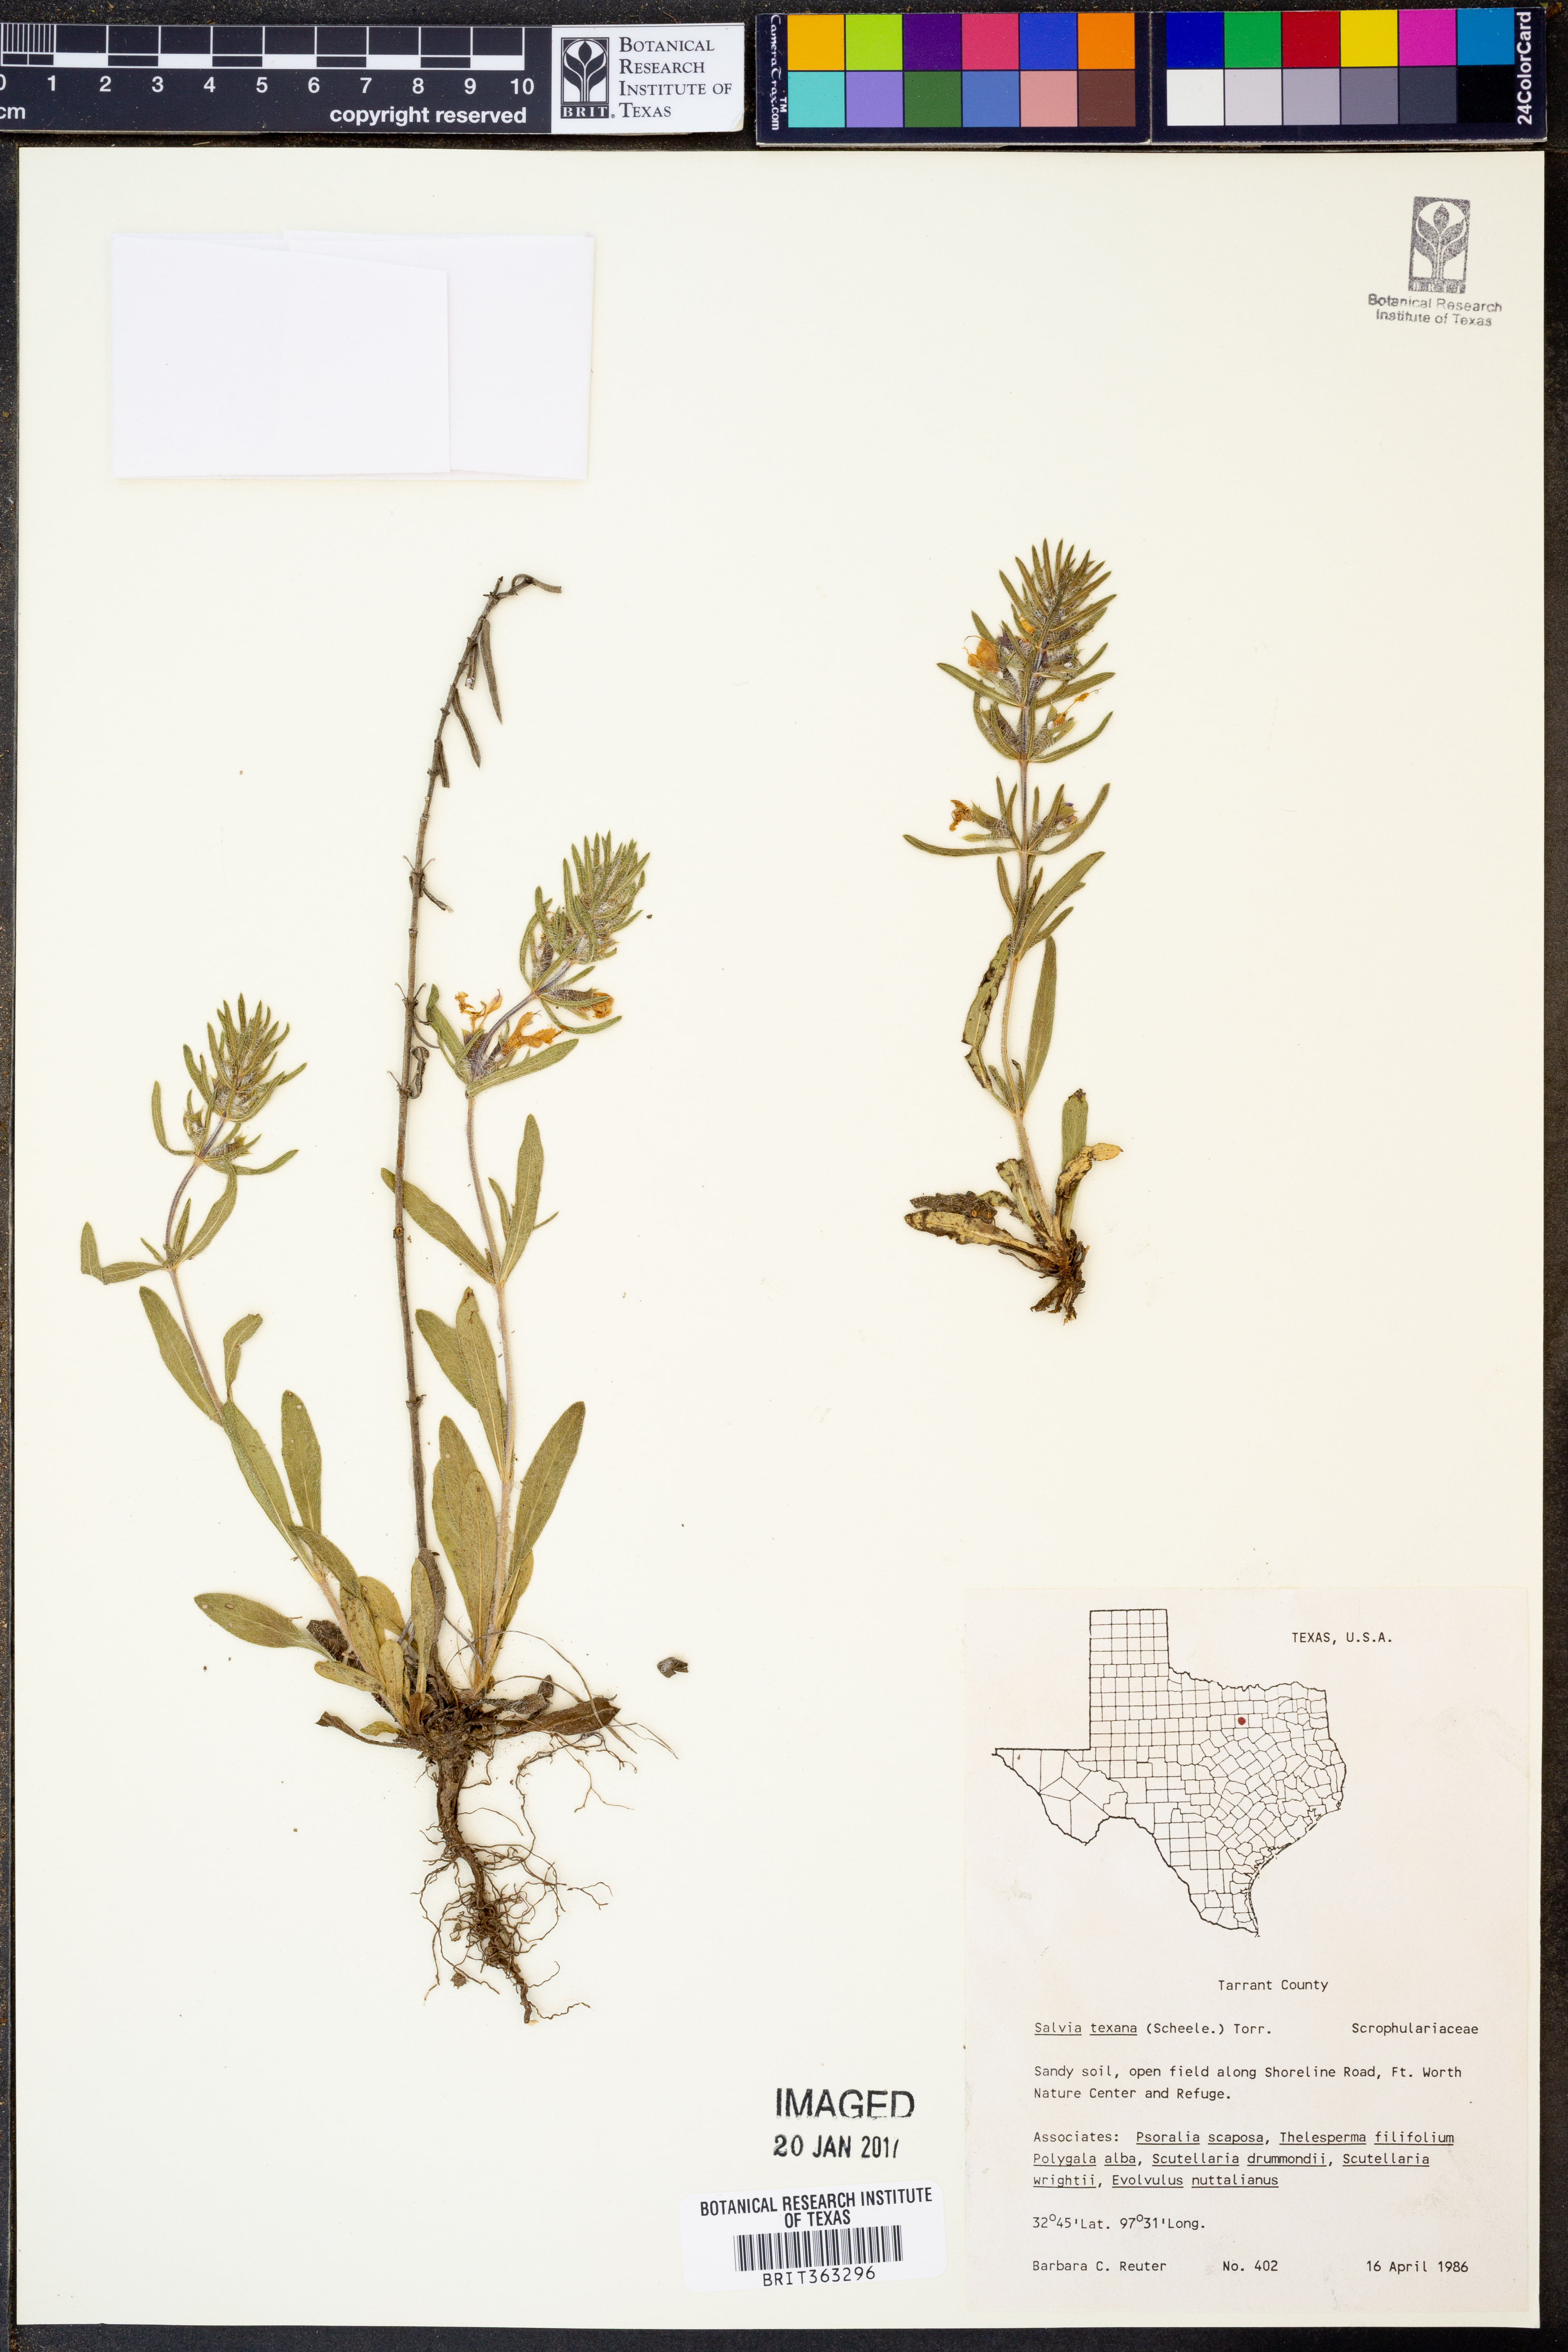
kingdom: Plantae
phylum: Tracheophyta
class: Magnoliopsida
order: Lamiales
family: Lamiaceae
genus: Salvia
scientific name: Salvia texana
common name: Texas sage
